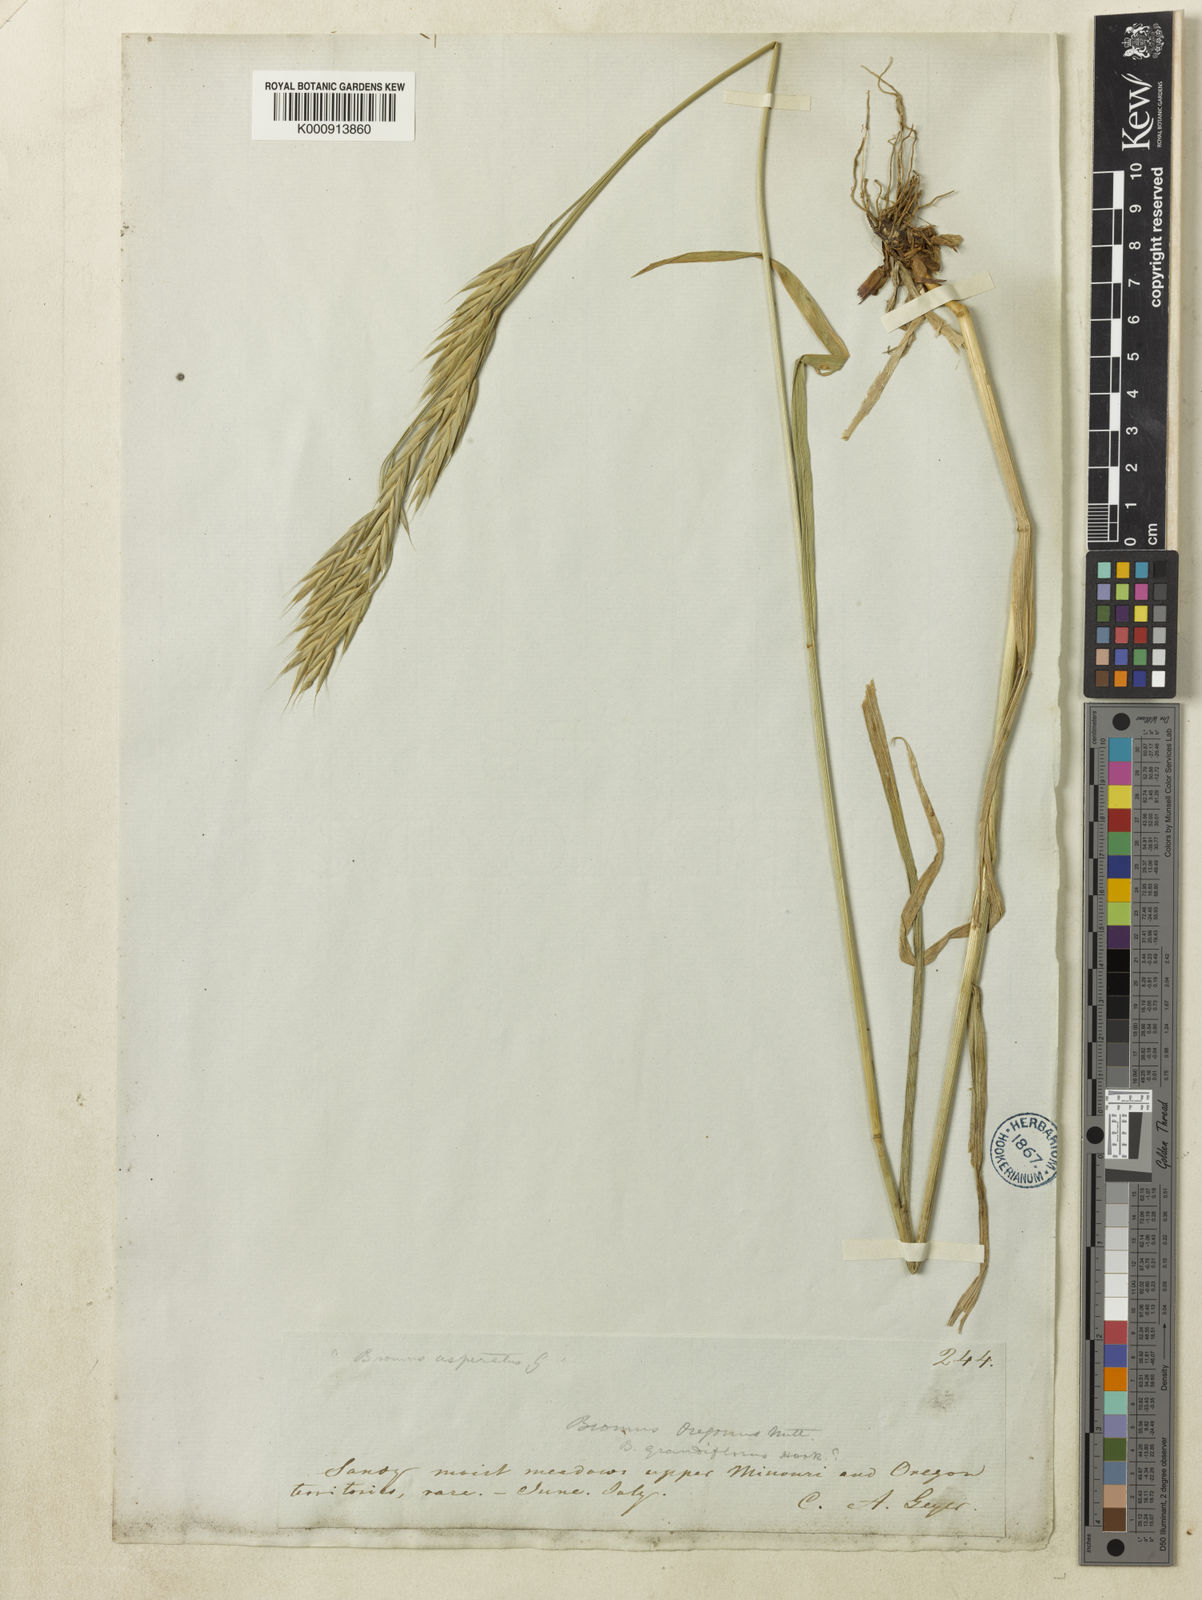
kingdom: Plantae
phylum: Tracheophyta
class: Liliopsida
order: Poales
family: Poaceae
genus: Bromus
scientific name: Bromus carinatus
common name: Mountain brome
